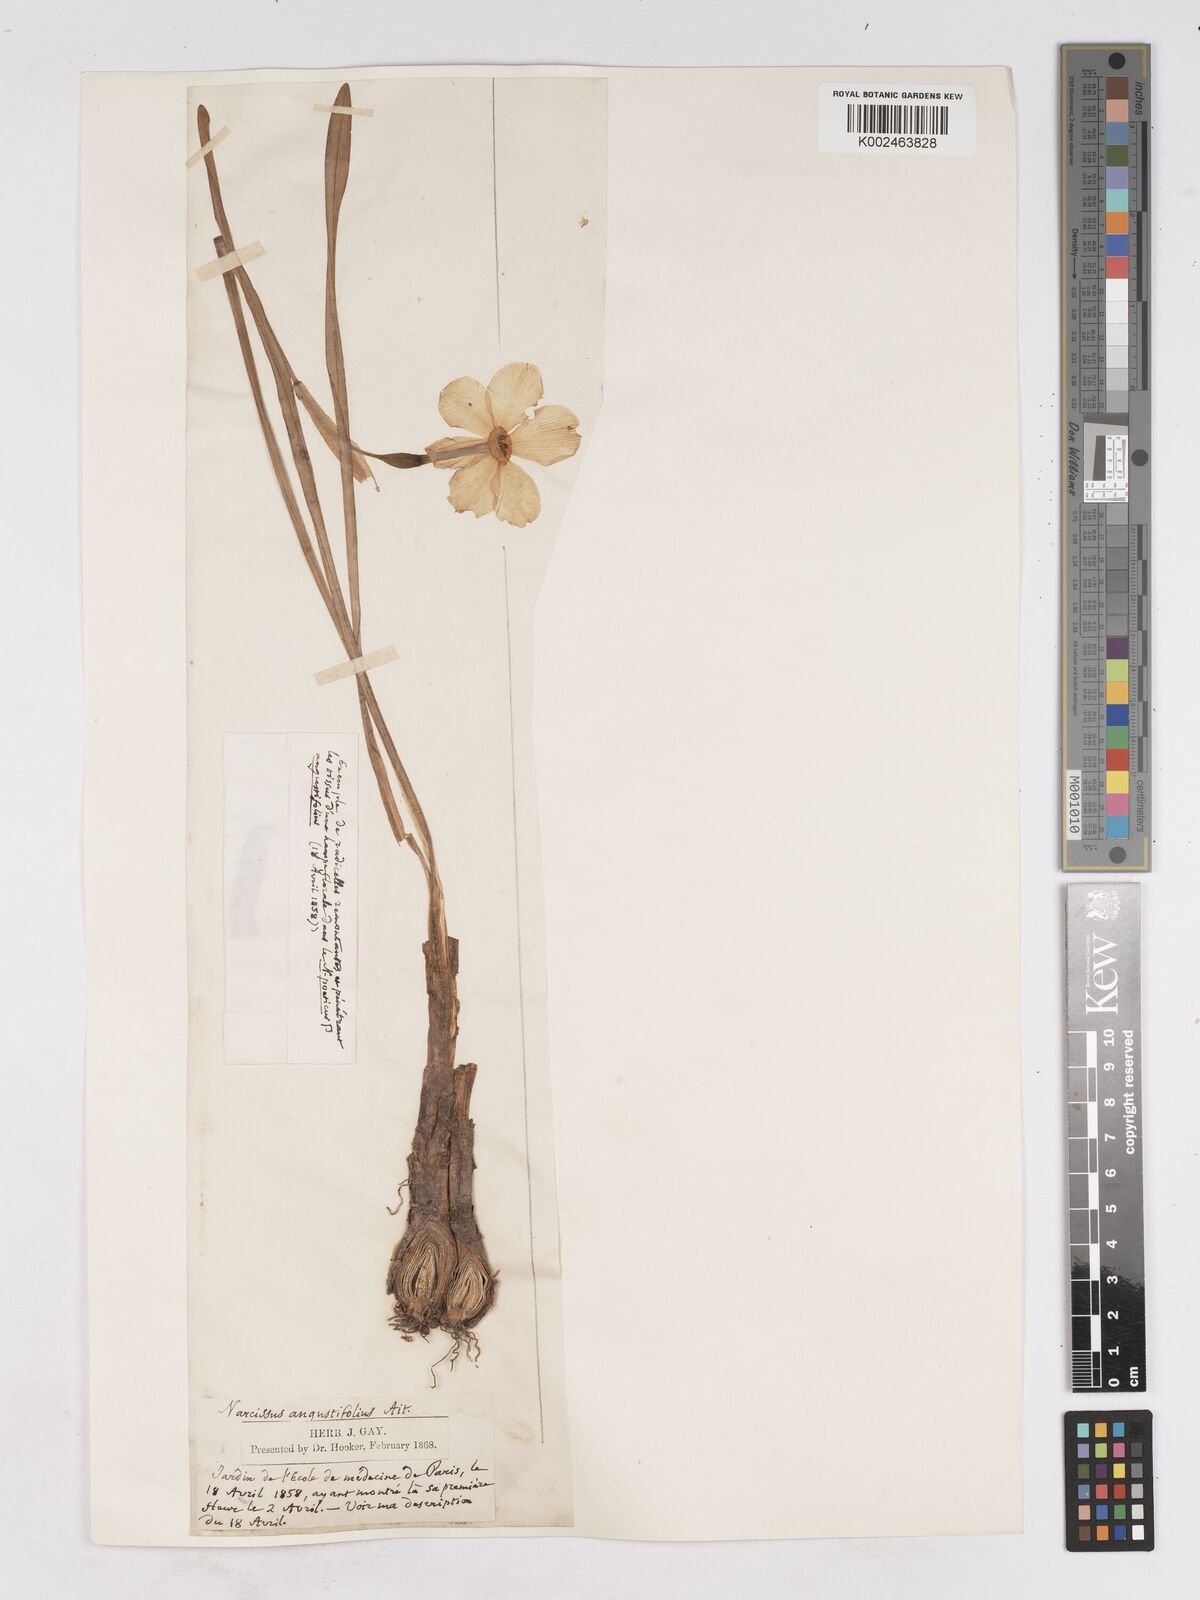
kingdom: Plantae
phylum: Tracheophyta
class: Liliopsida
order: Asparagales
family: Amaryllidaceae
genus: Narcissus
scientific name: Narcissus
